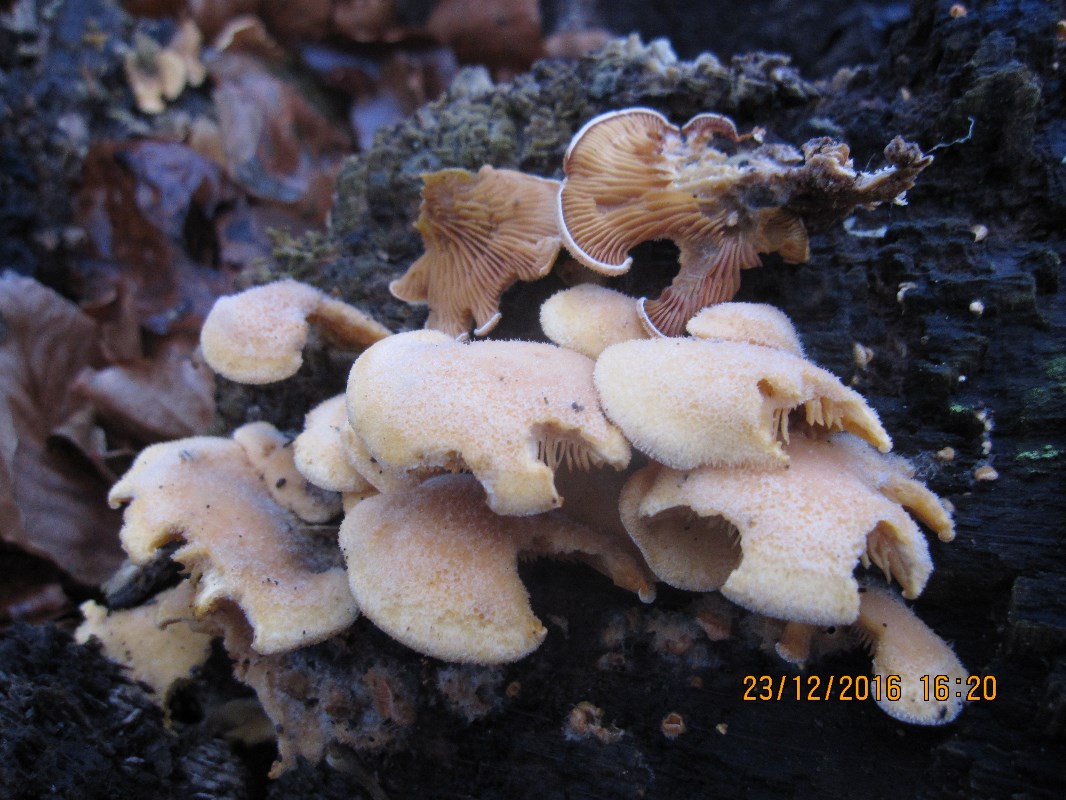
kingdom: Fungi
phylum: Basidiomycota
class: Agaricomycetes
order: Agaricales
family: Phyllotopsidaceae
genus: Phyllotopsis
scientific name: Phyllotopsis nidulans
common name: okkerblad
